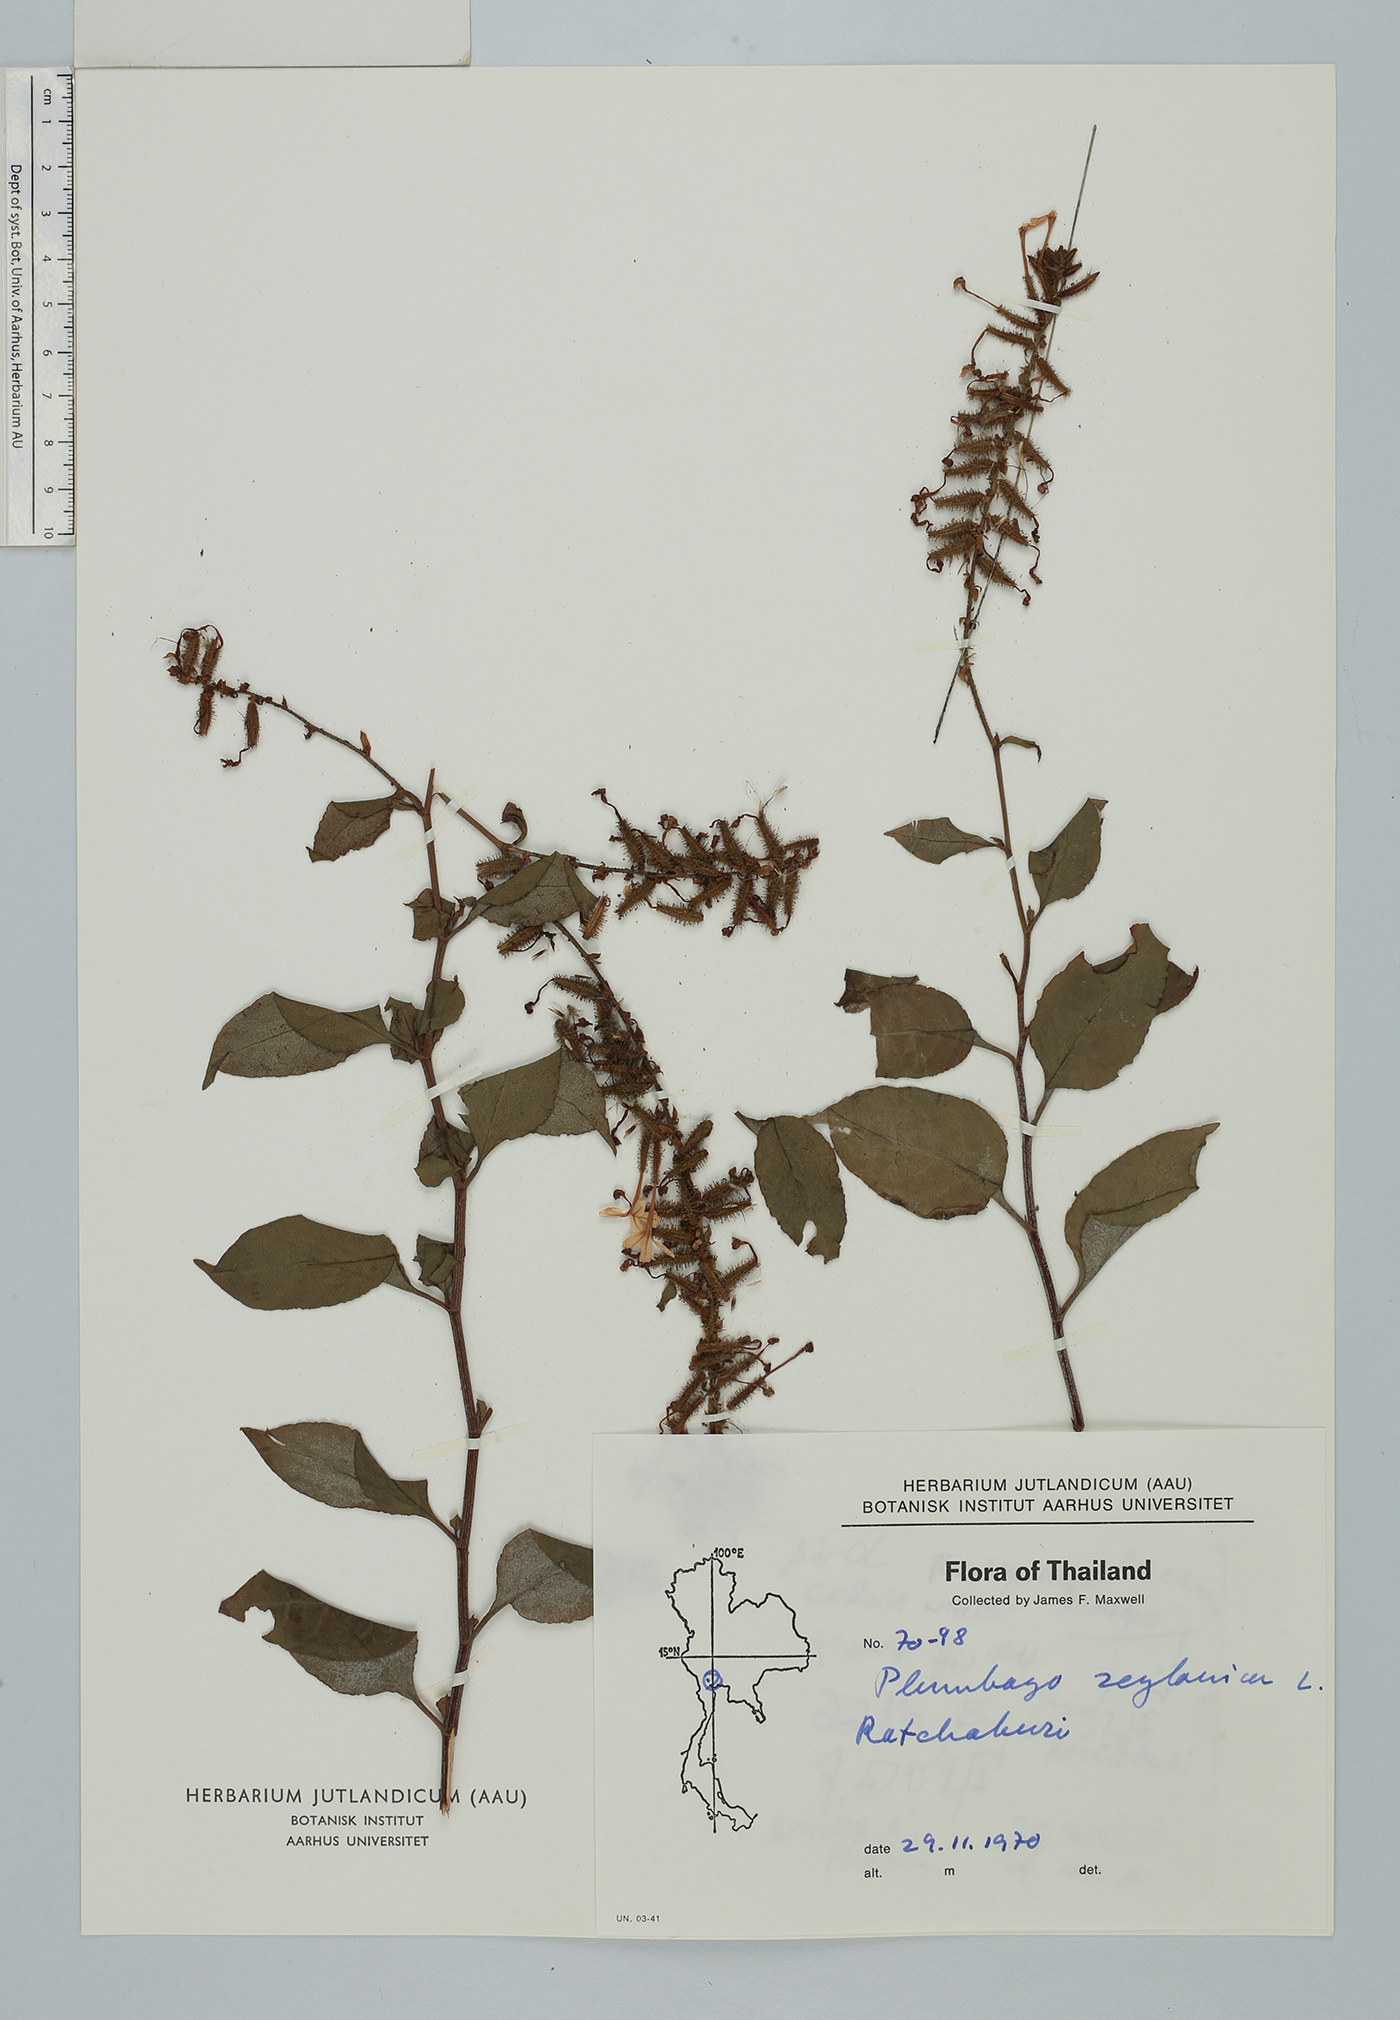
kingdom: Plantae
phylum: Tracheophyta
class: Magnoliopsida
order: Caryophyllales
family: Plumbaginaceae
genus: Plumbago
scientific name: Plumbago zeylanica
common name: Doctorbush
